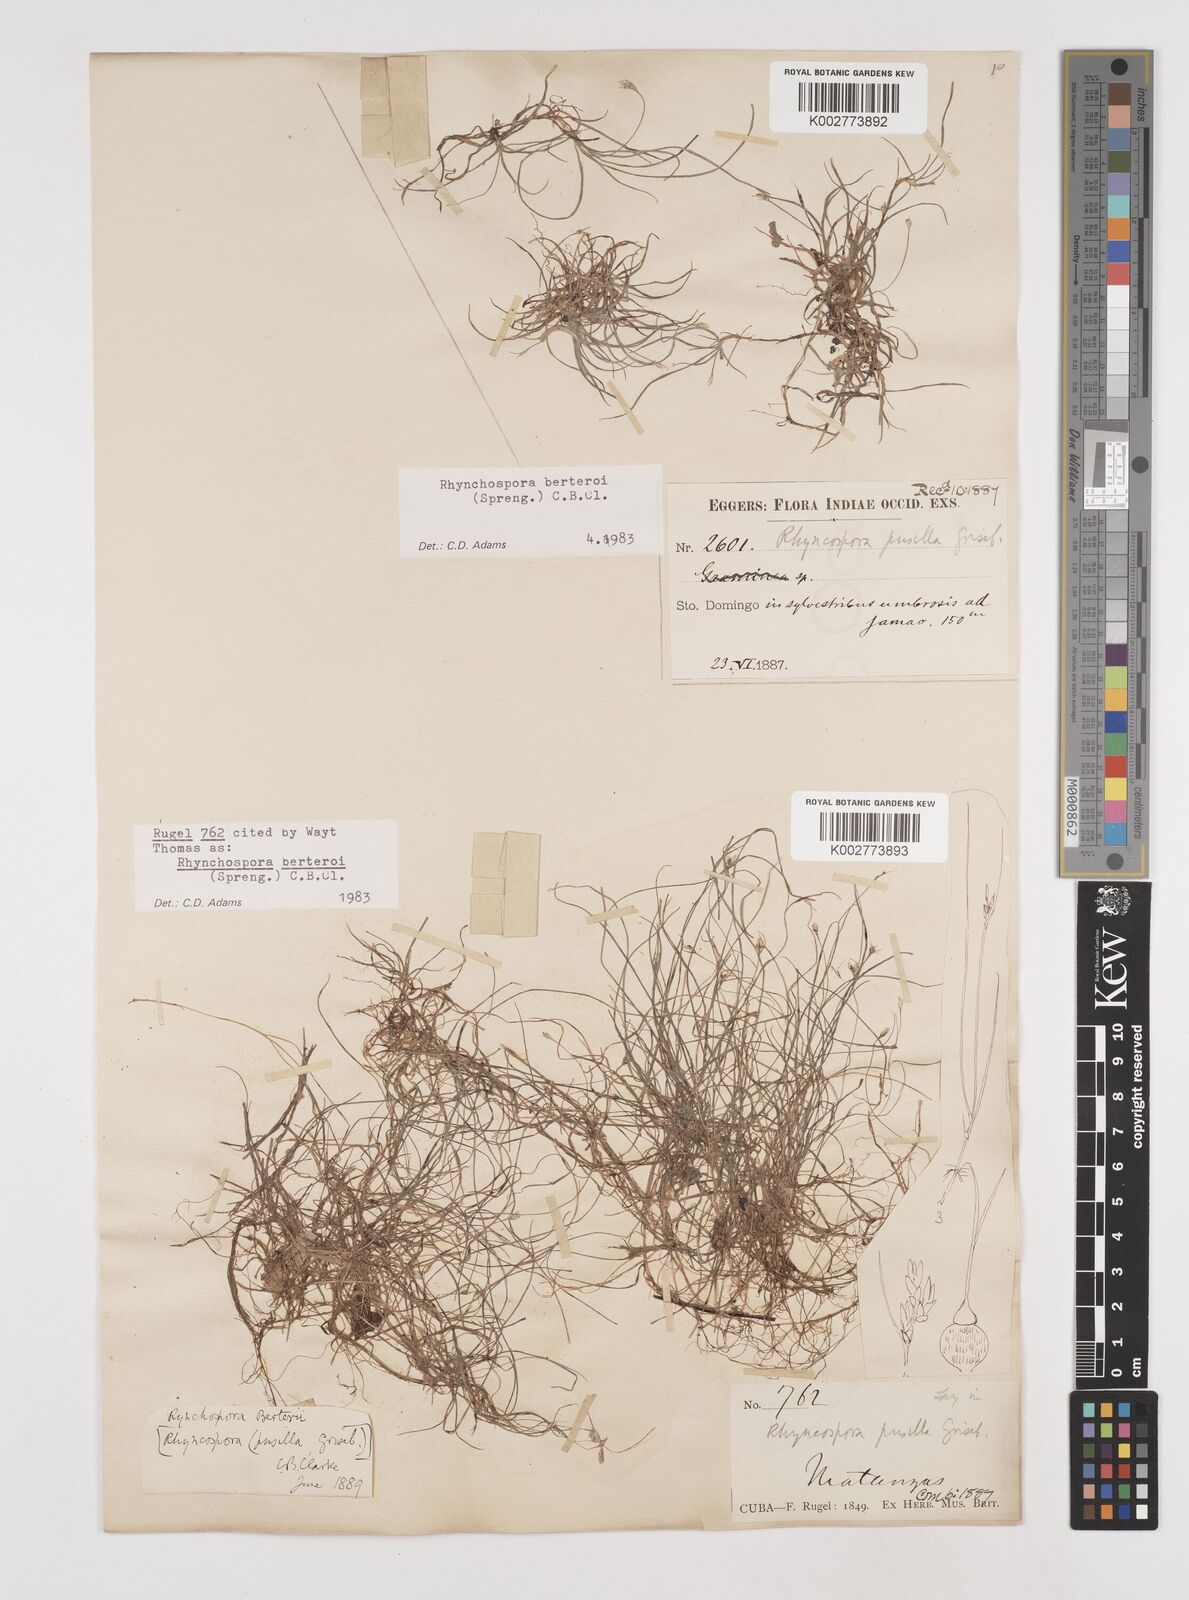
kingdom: Plantae
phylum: Tracheophyta
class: Liliopsida
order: Poales
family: Cyperaceae
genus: Rhynchospora
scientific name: Rhynchospora berteroi
